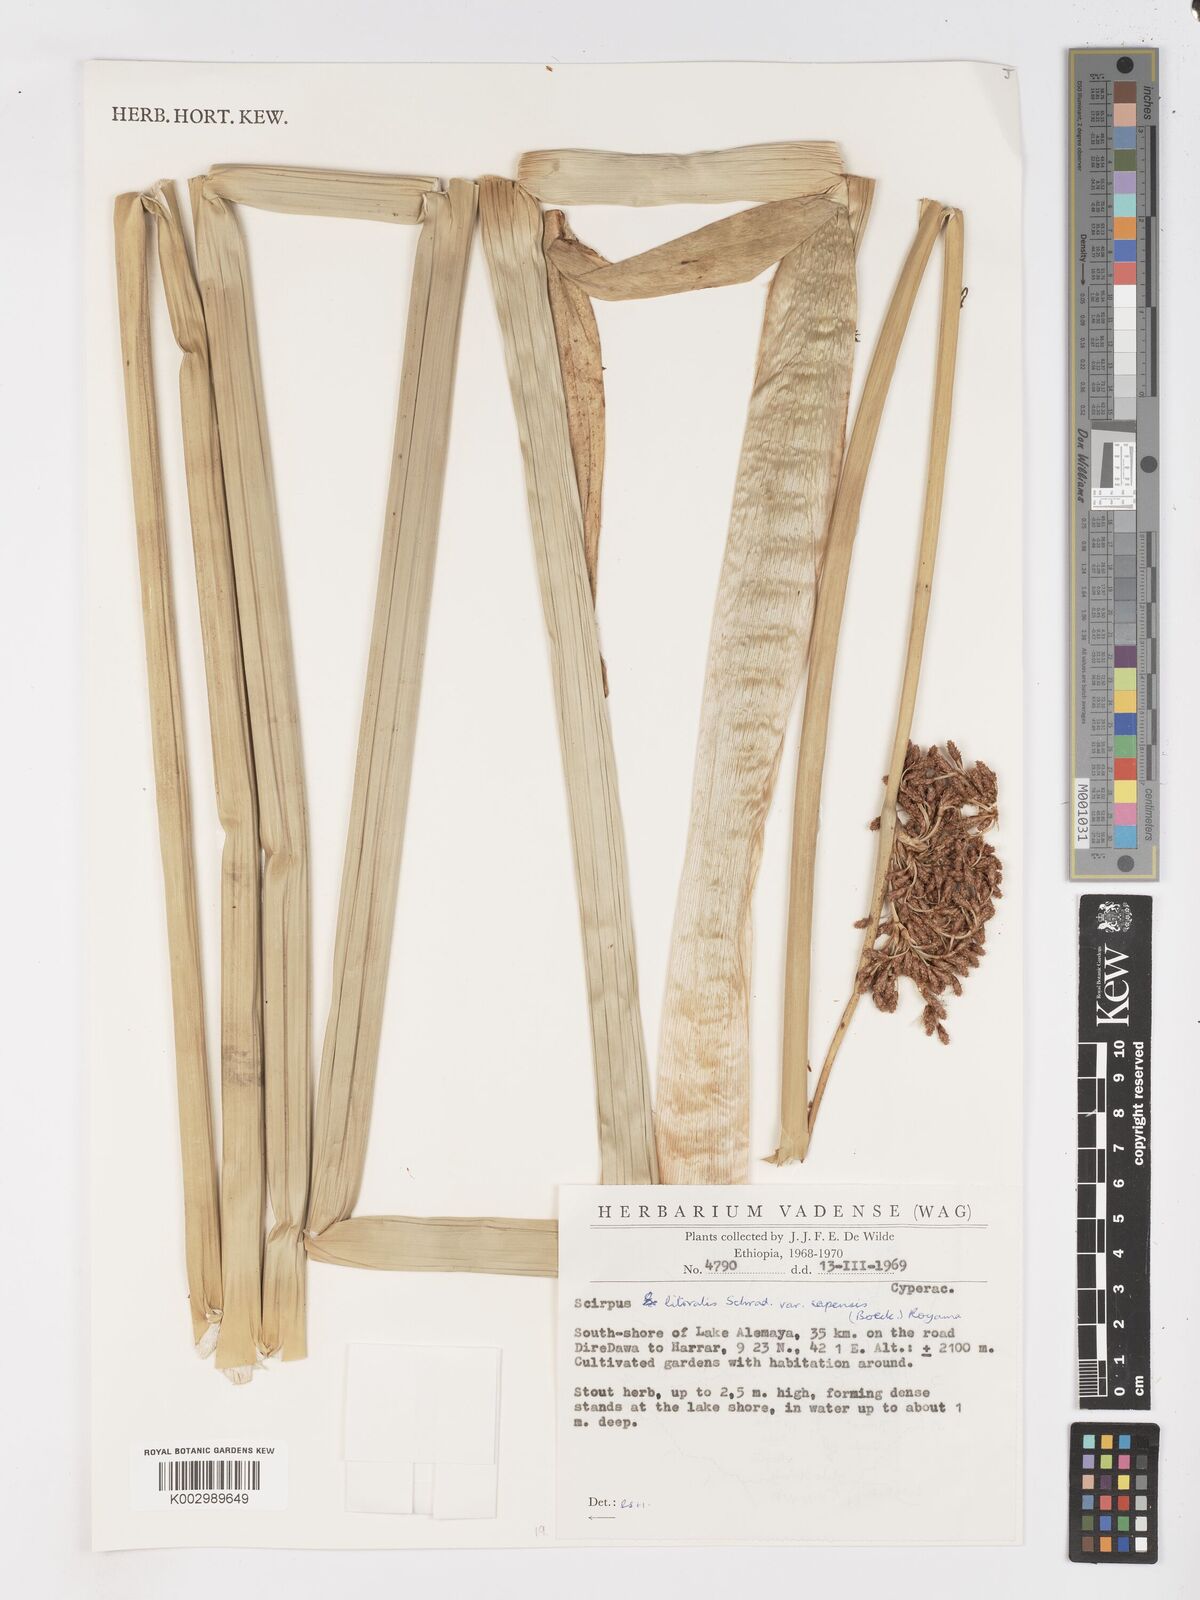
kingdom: Plantae
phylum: Tracheophyta
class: Liliopsida
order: Poales
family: Cyperaceae
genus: Schoenoplectus
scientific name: Schoenoplectus litoralis
